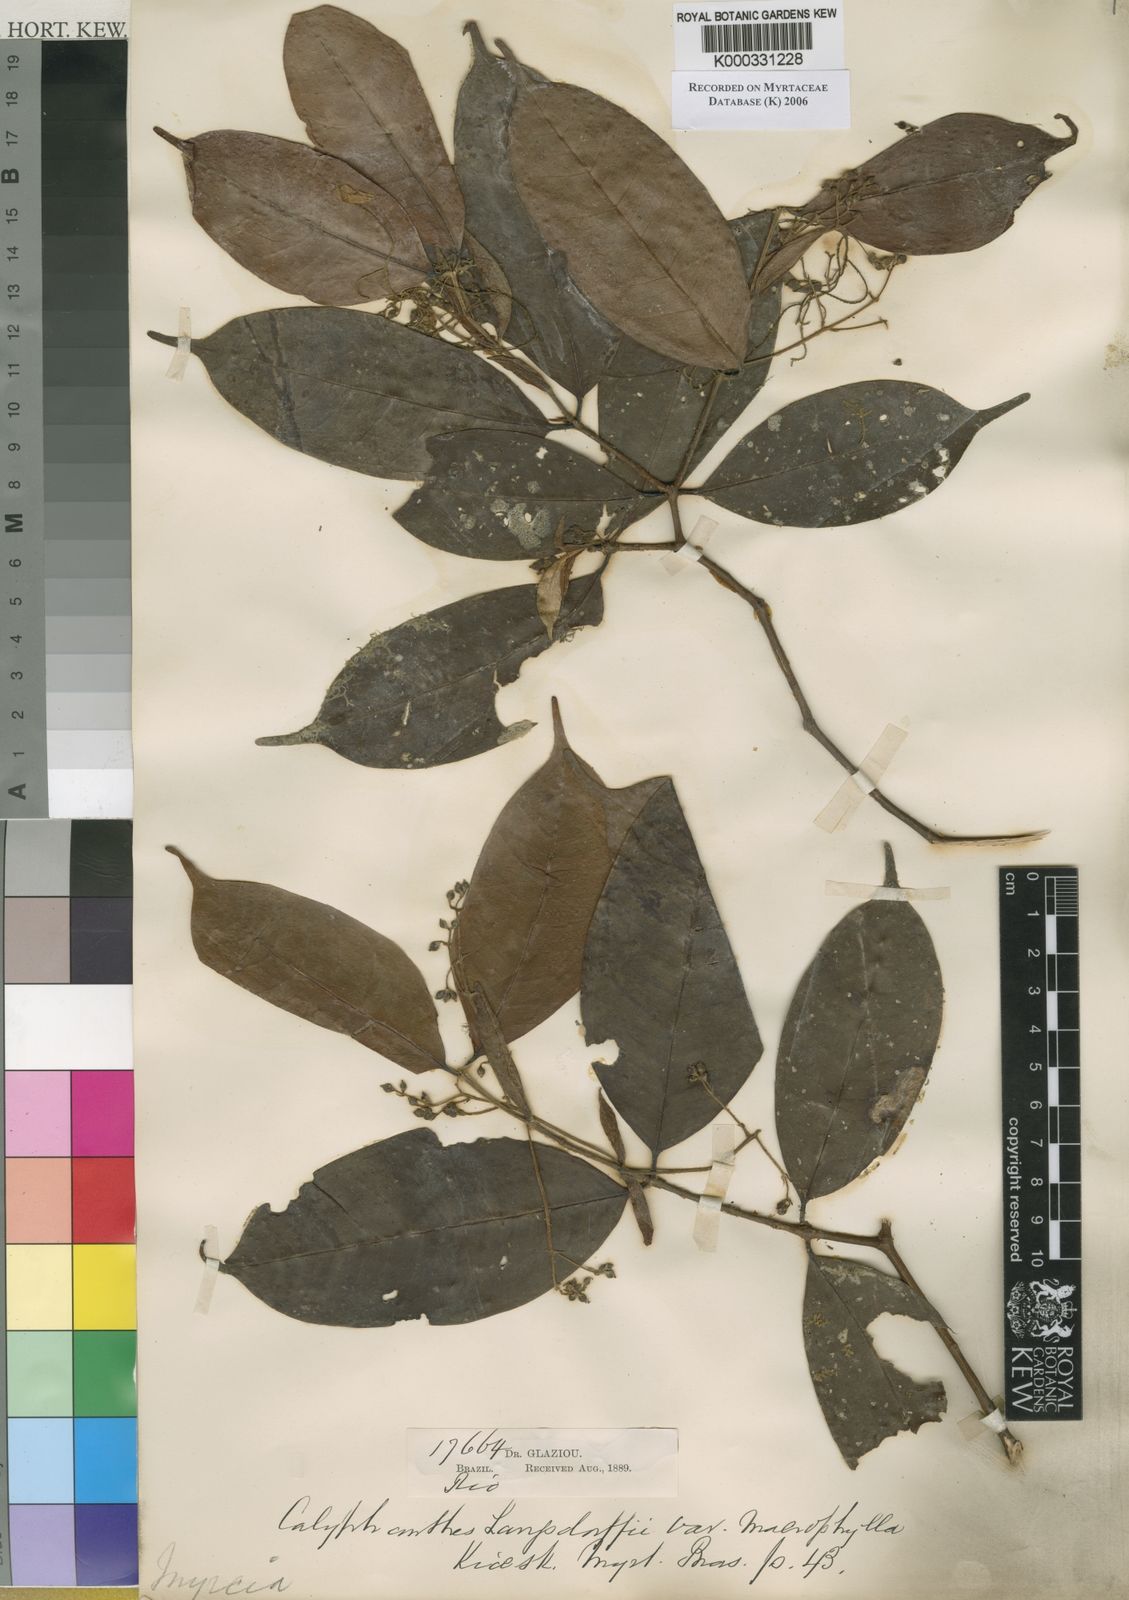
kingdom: Plantae
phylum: Tracheophyta
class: Magnoliopsida
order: Myrtales
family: Myrtaceae
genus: Myrcia
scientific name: Myrcia marliereana
